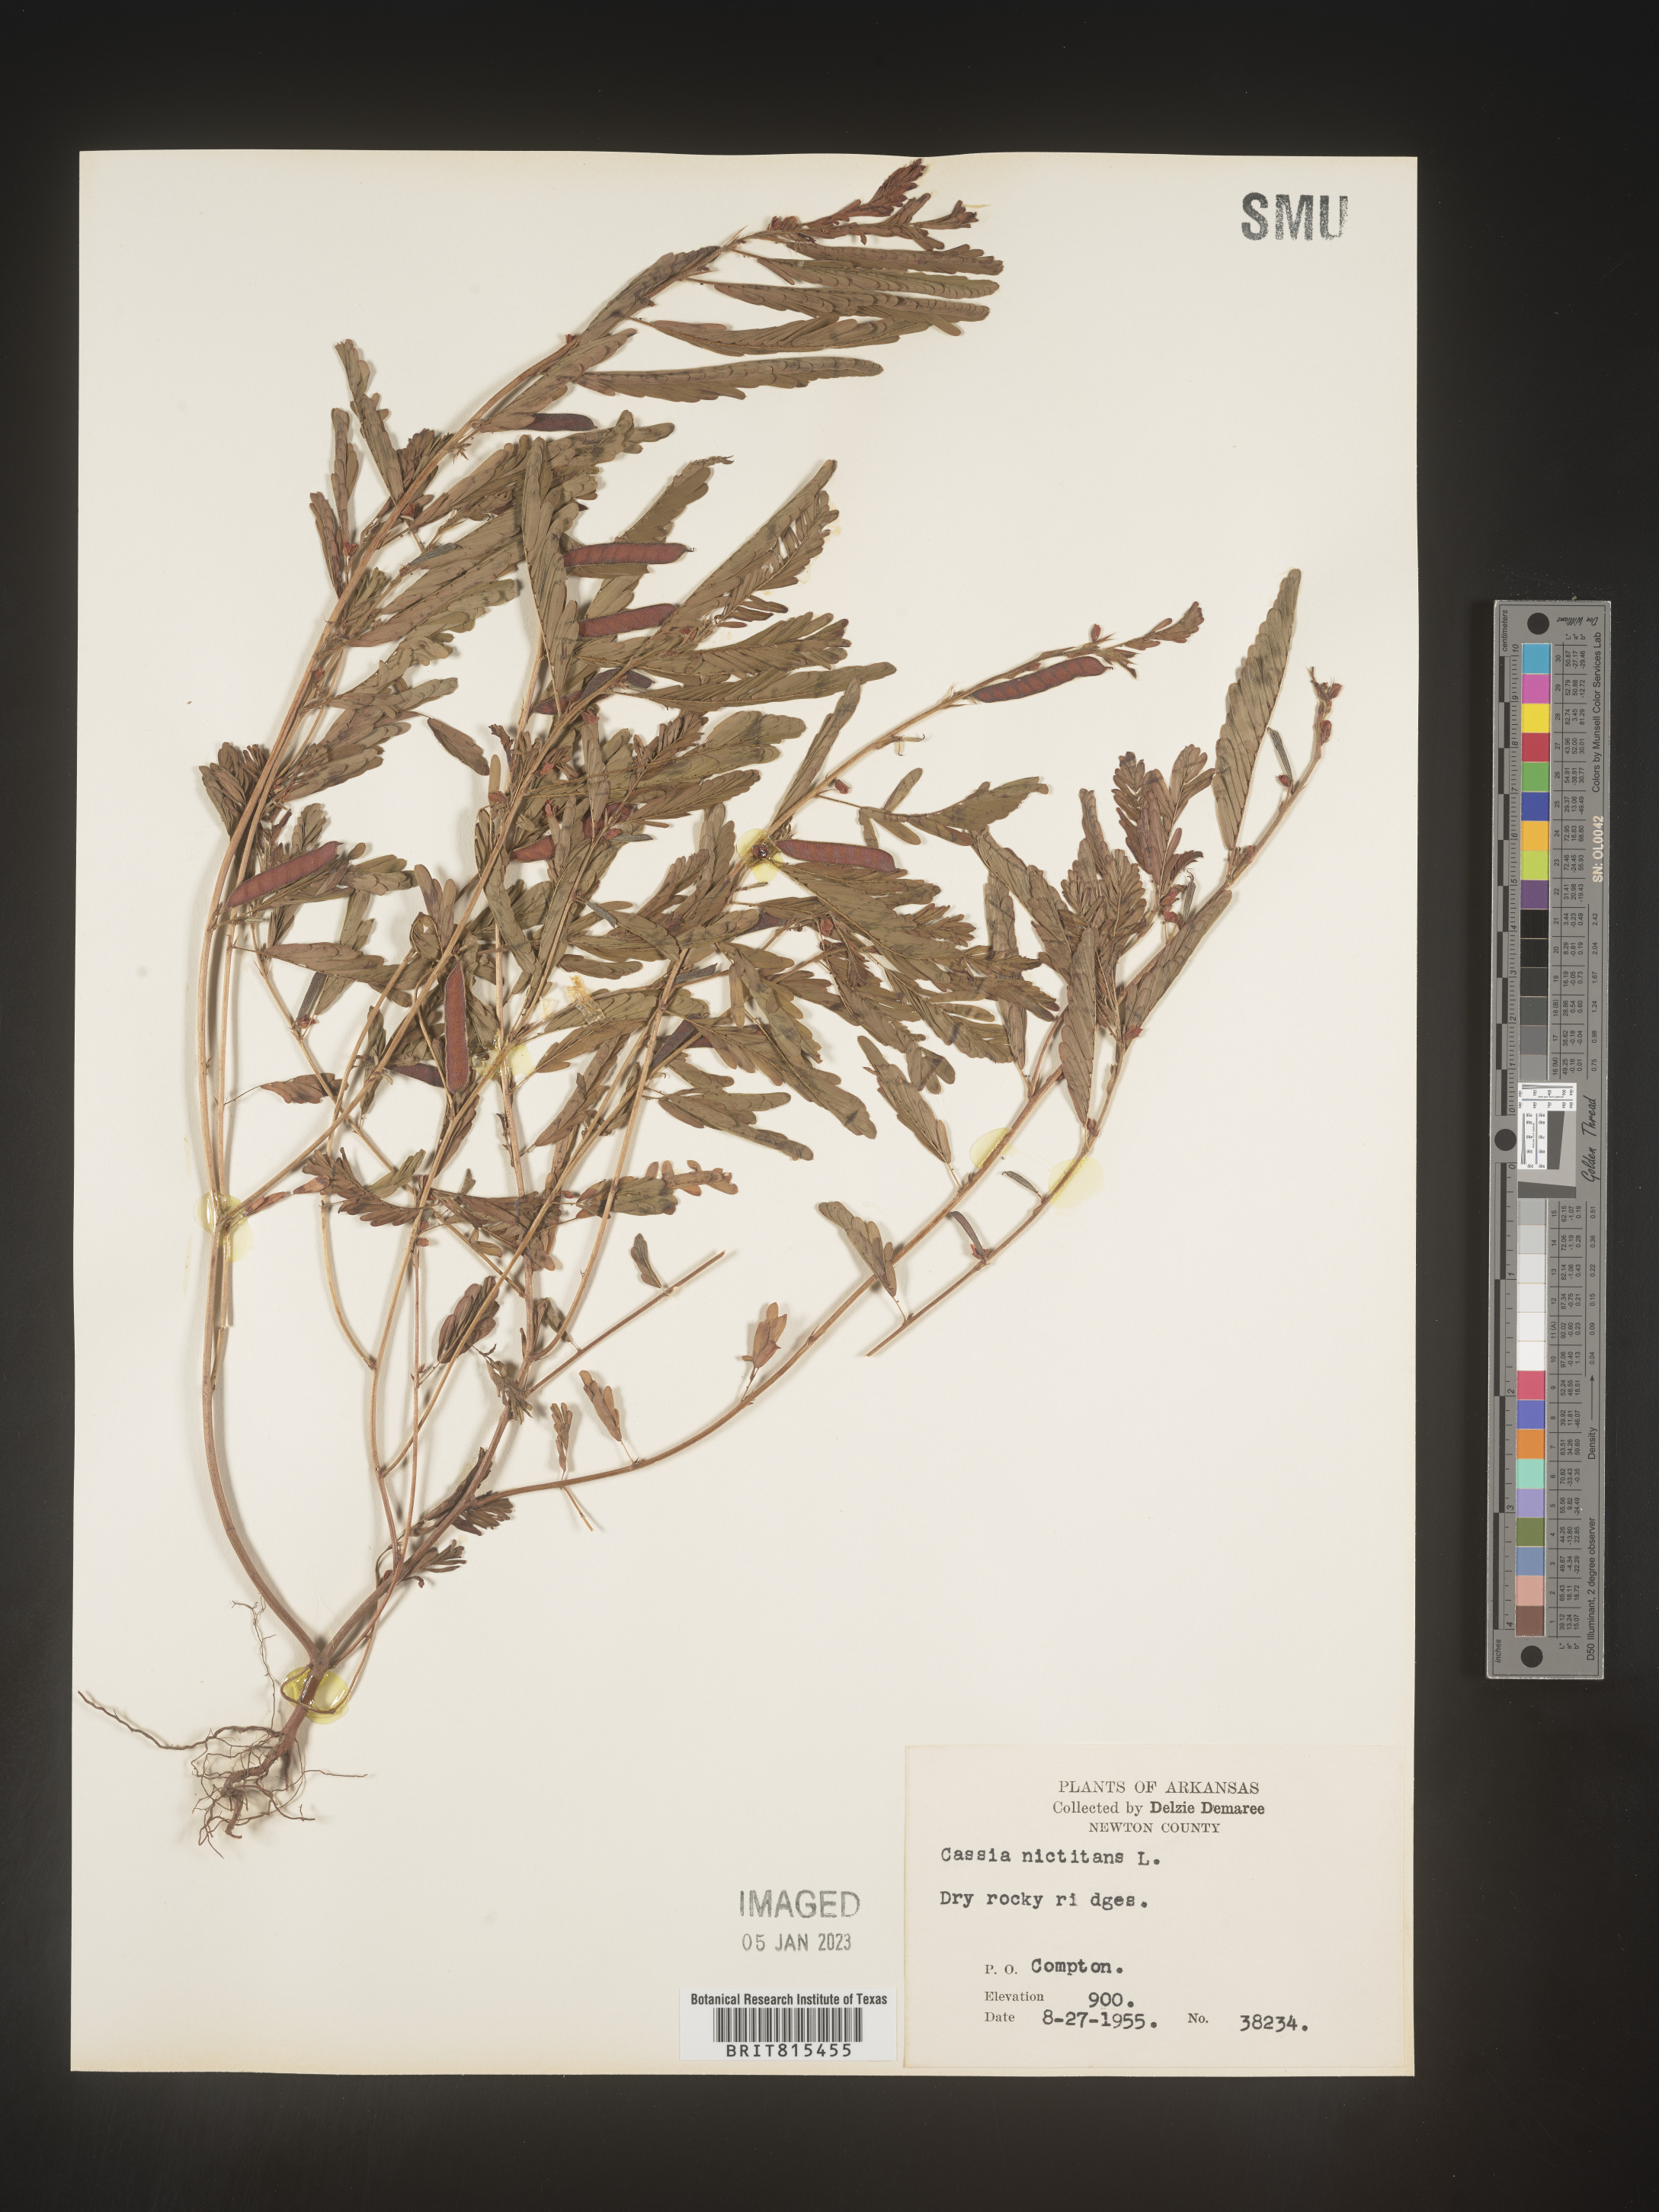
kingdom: Plantae
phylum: Tracheophyta
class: Magnoliopsida
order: Fabales
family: Fabaceae
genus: Chamaecrista
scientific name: Chamaecrista nictitans
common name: Sensitive cassia
